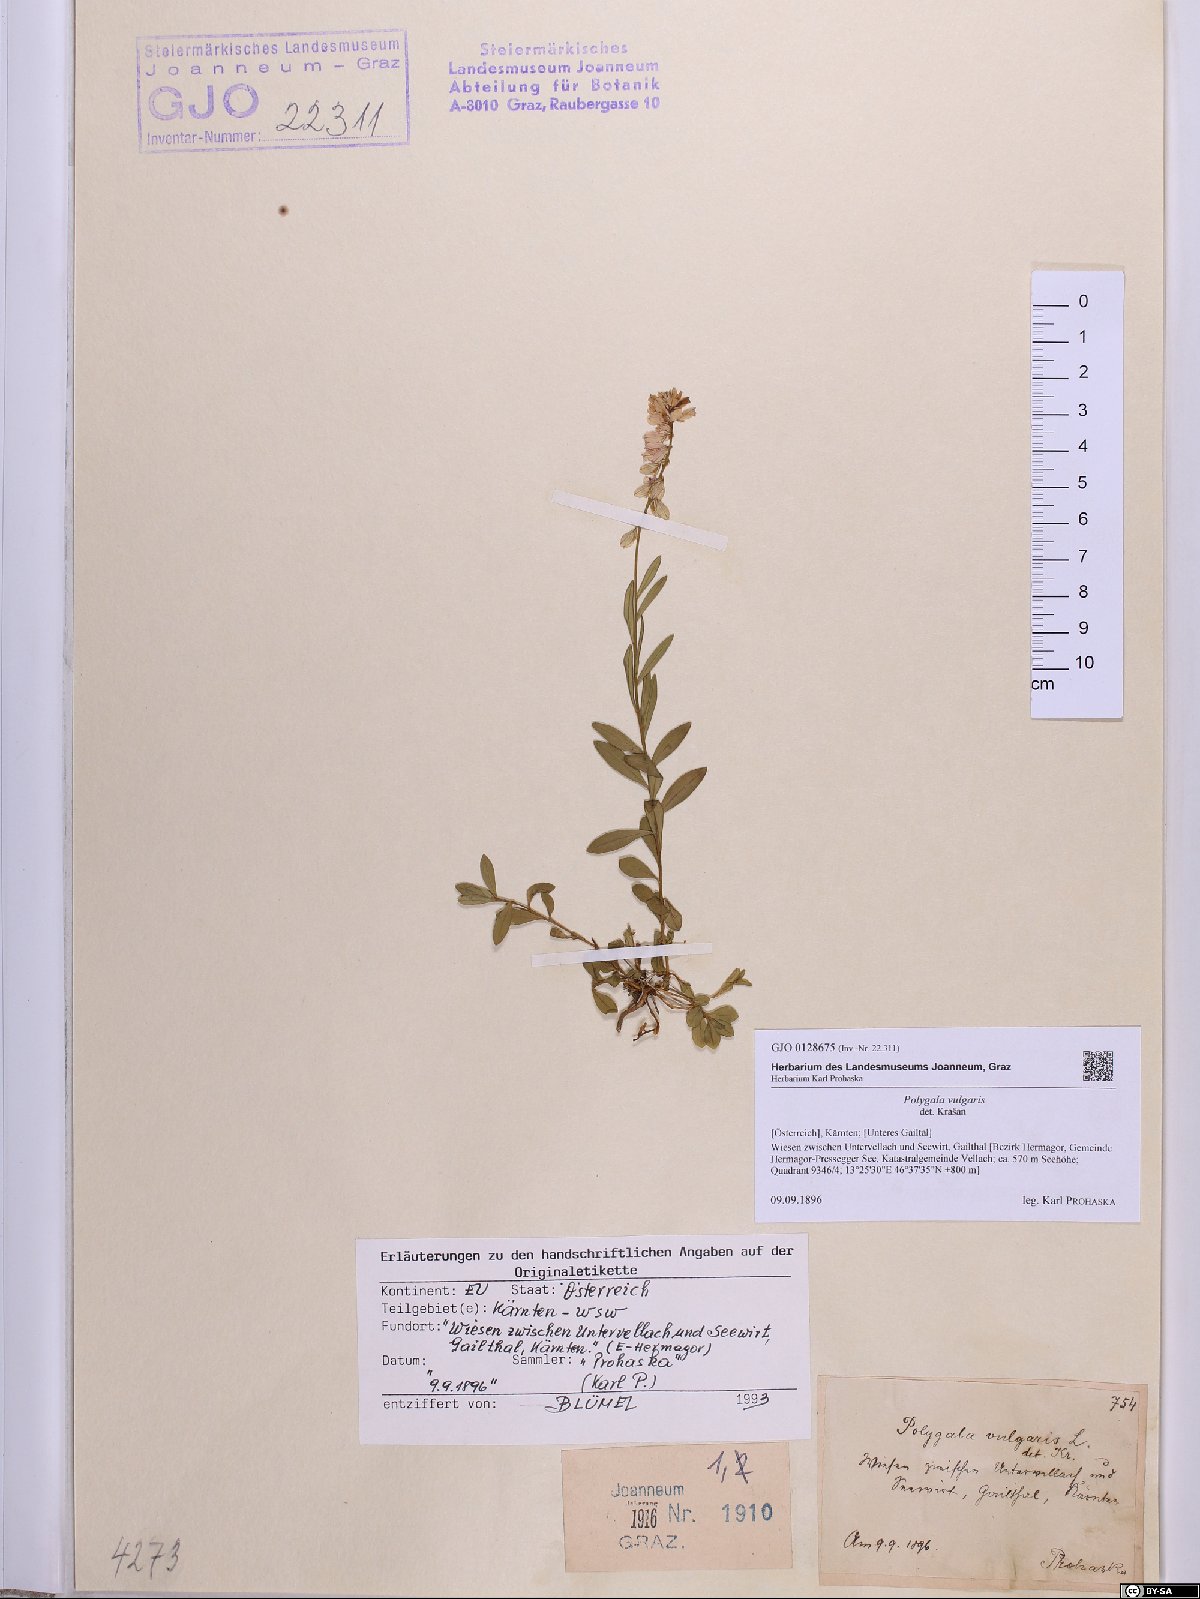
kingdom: Plantae
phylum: Tracheophyta
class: Magnoliopsida
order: Fabales
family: Polygalaceae
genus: Polygala
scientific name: Polygala vulgaris
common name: Common milkwort
